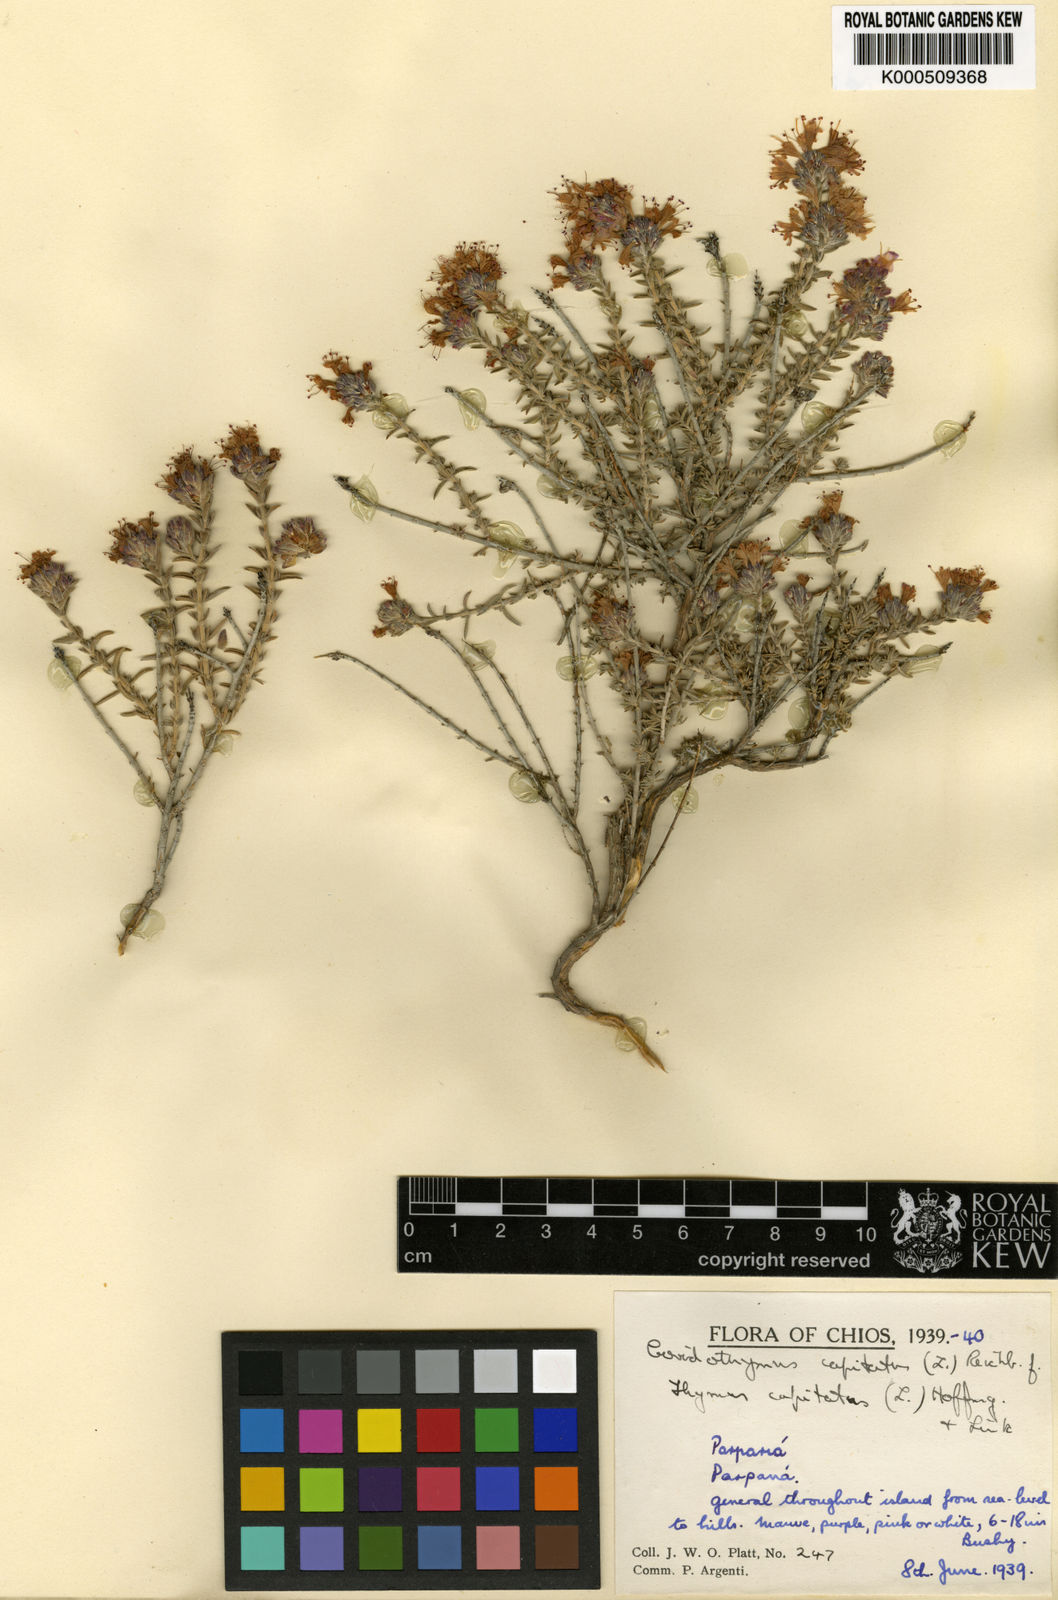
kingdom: Plantae
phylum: Tracheophyta
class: Magnoliopsida
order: Lamiales
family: Lamiaceae
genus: Thymbra
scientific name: Thymbra capitata
